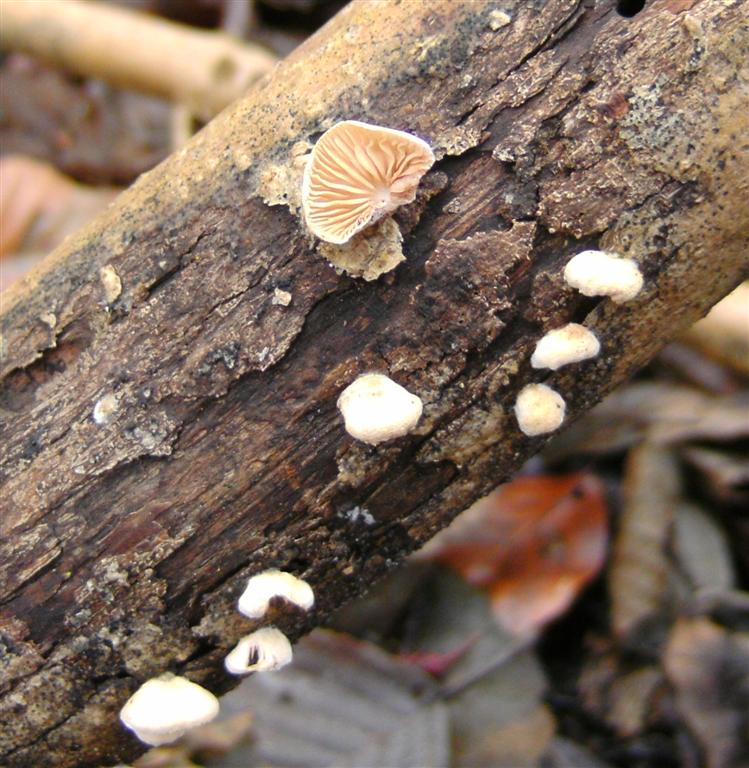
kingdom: Fungi
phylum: Basidiomycota
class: Agaricomycetes
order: Agaricales
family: Crepidotaceae
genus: Crepidotus
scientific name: Crepidotus cesatii
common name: almindelig muslingesvamp
